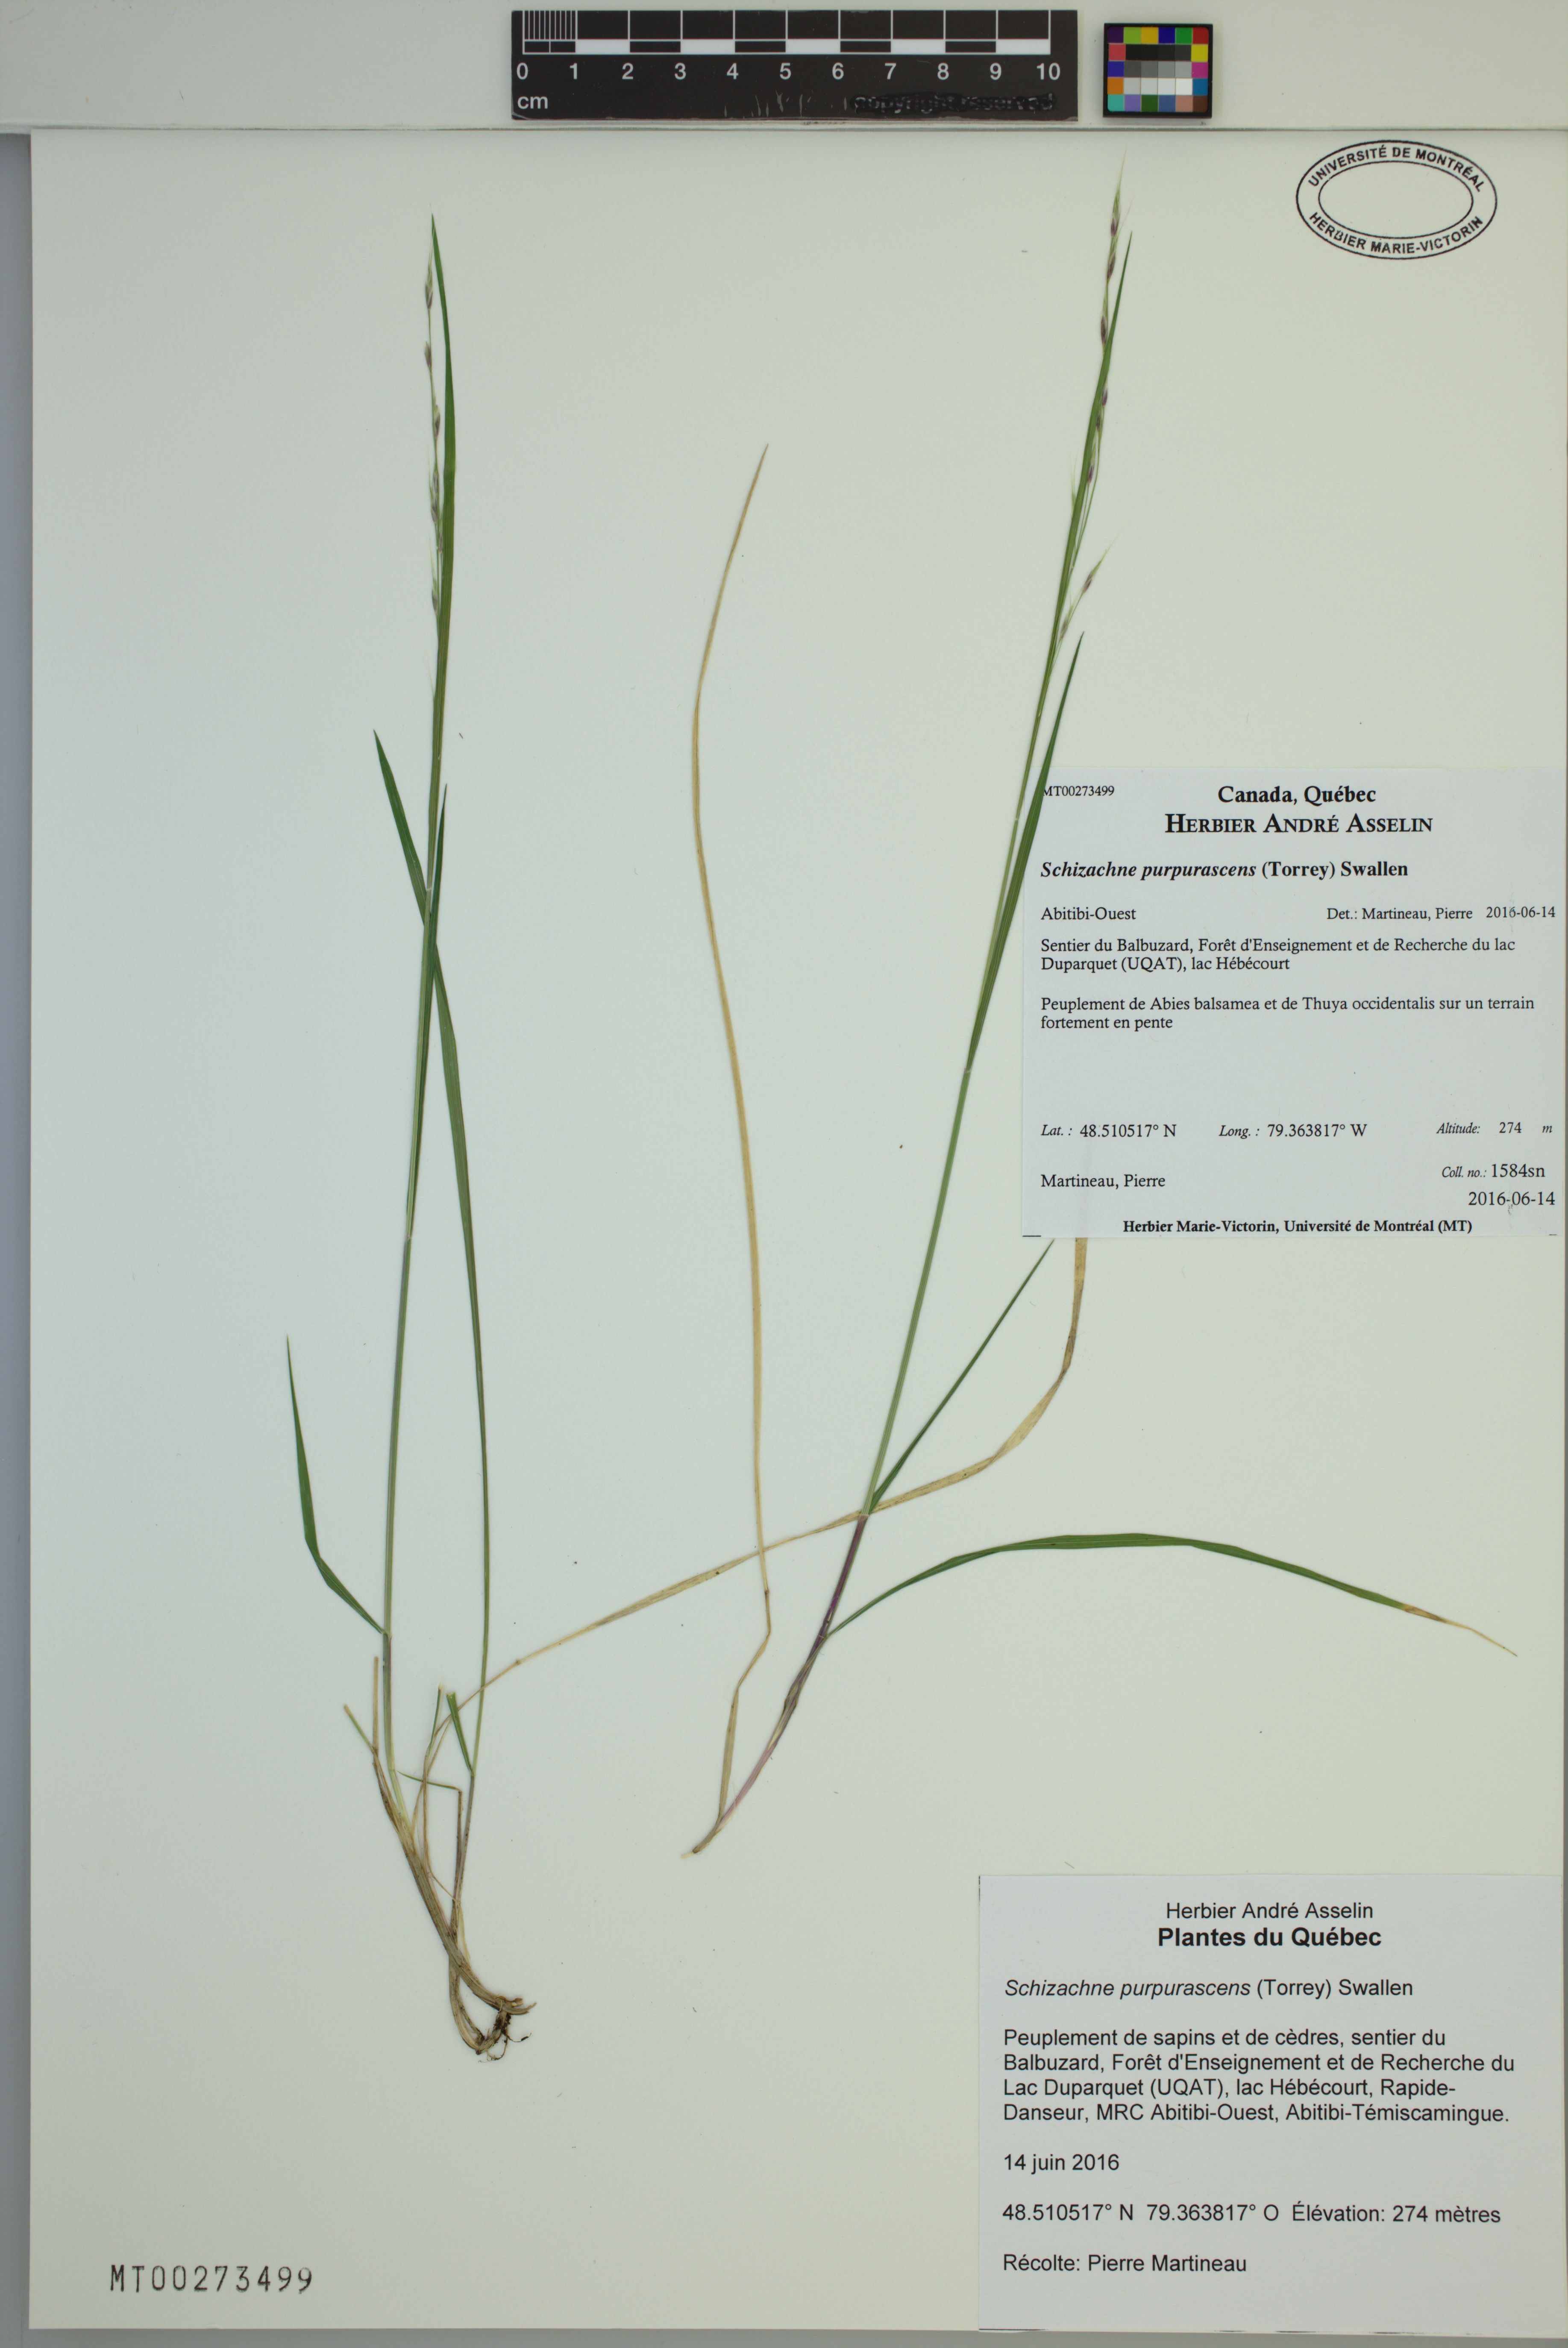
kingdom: Plantae
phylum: Tracheophyta
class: Liliopsida
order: Poales
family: Poaceae
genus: Schizachne
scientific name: Schizachne purpurascens
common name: False melic
